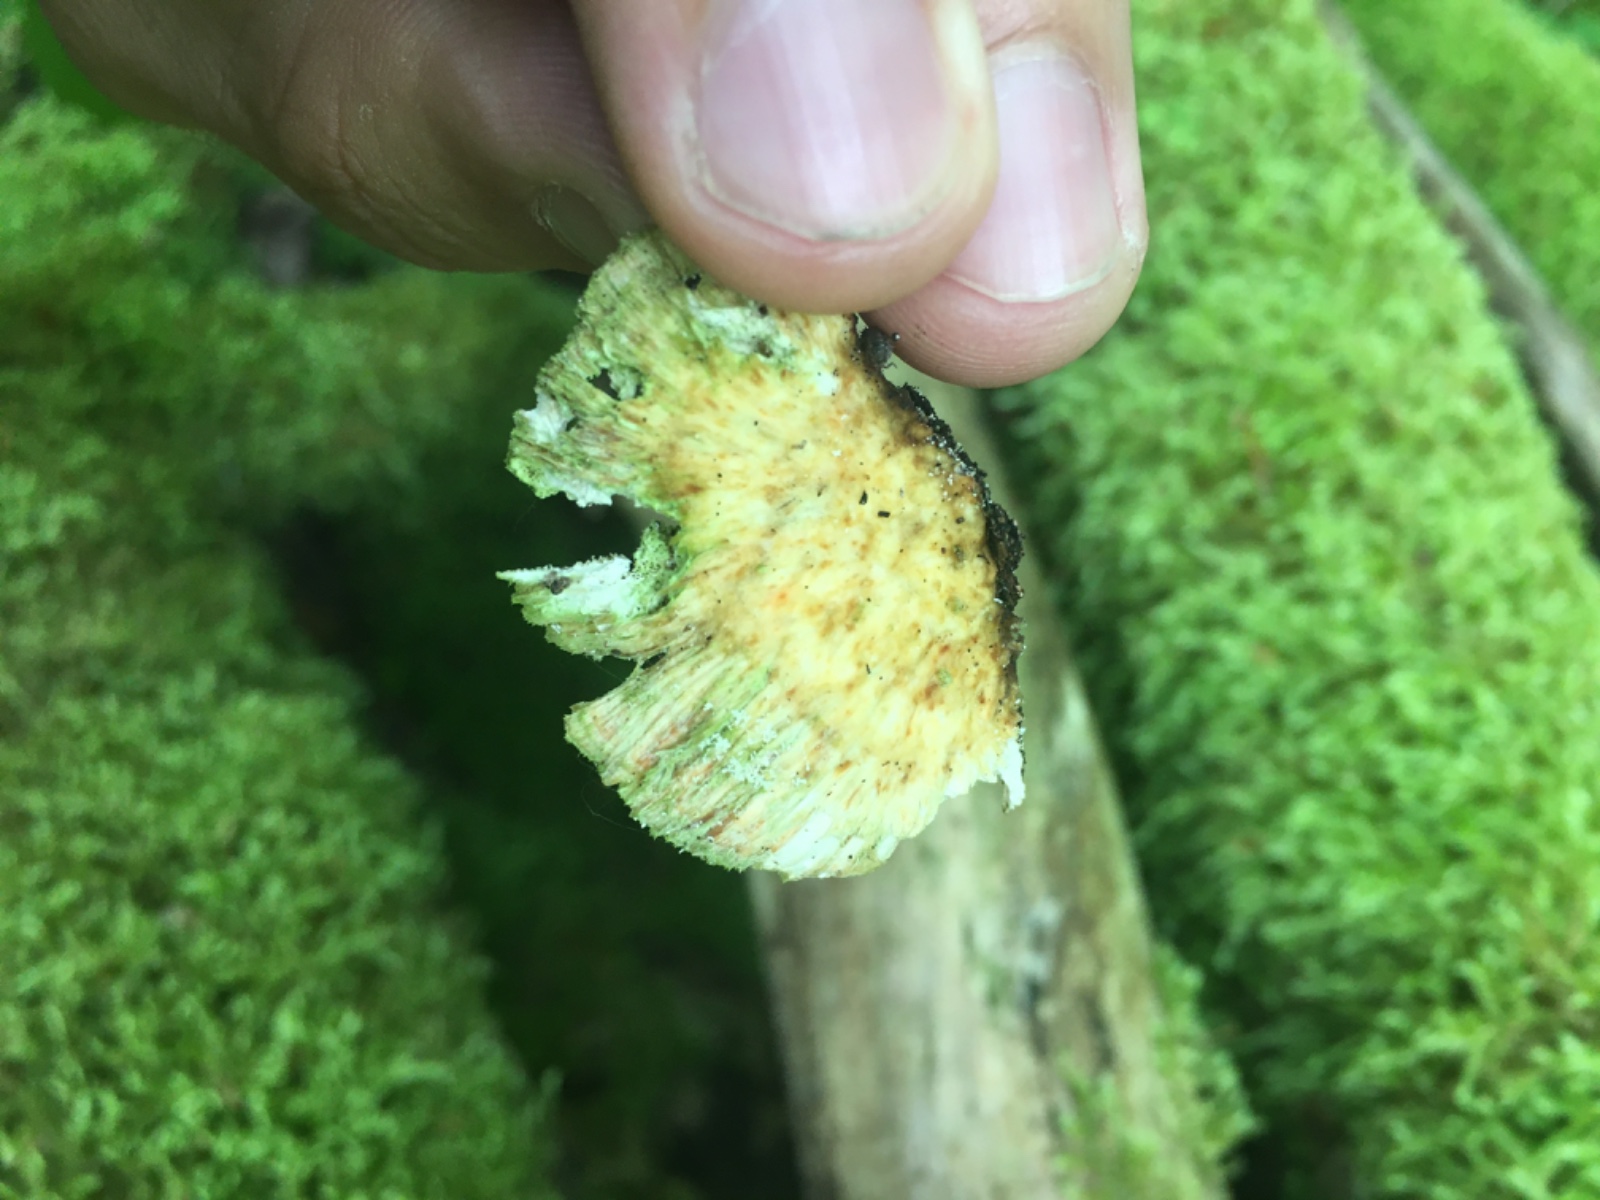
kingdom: Fungi
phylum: Basidiomycota
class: Agaricomycetes
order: Polyporales
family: Polyporaceae
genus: Trametes
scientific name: Trametes
